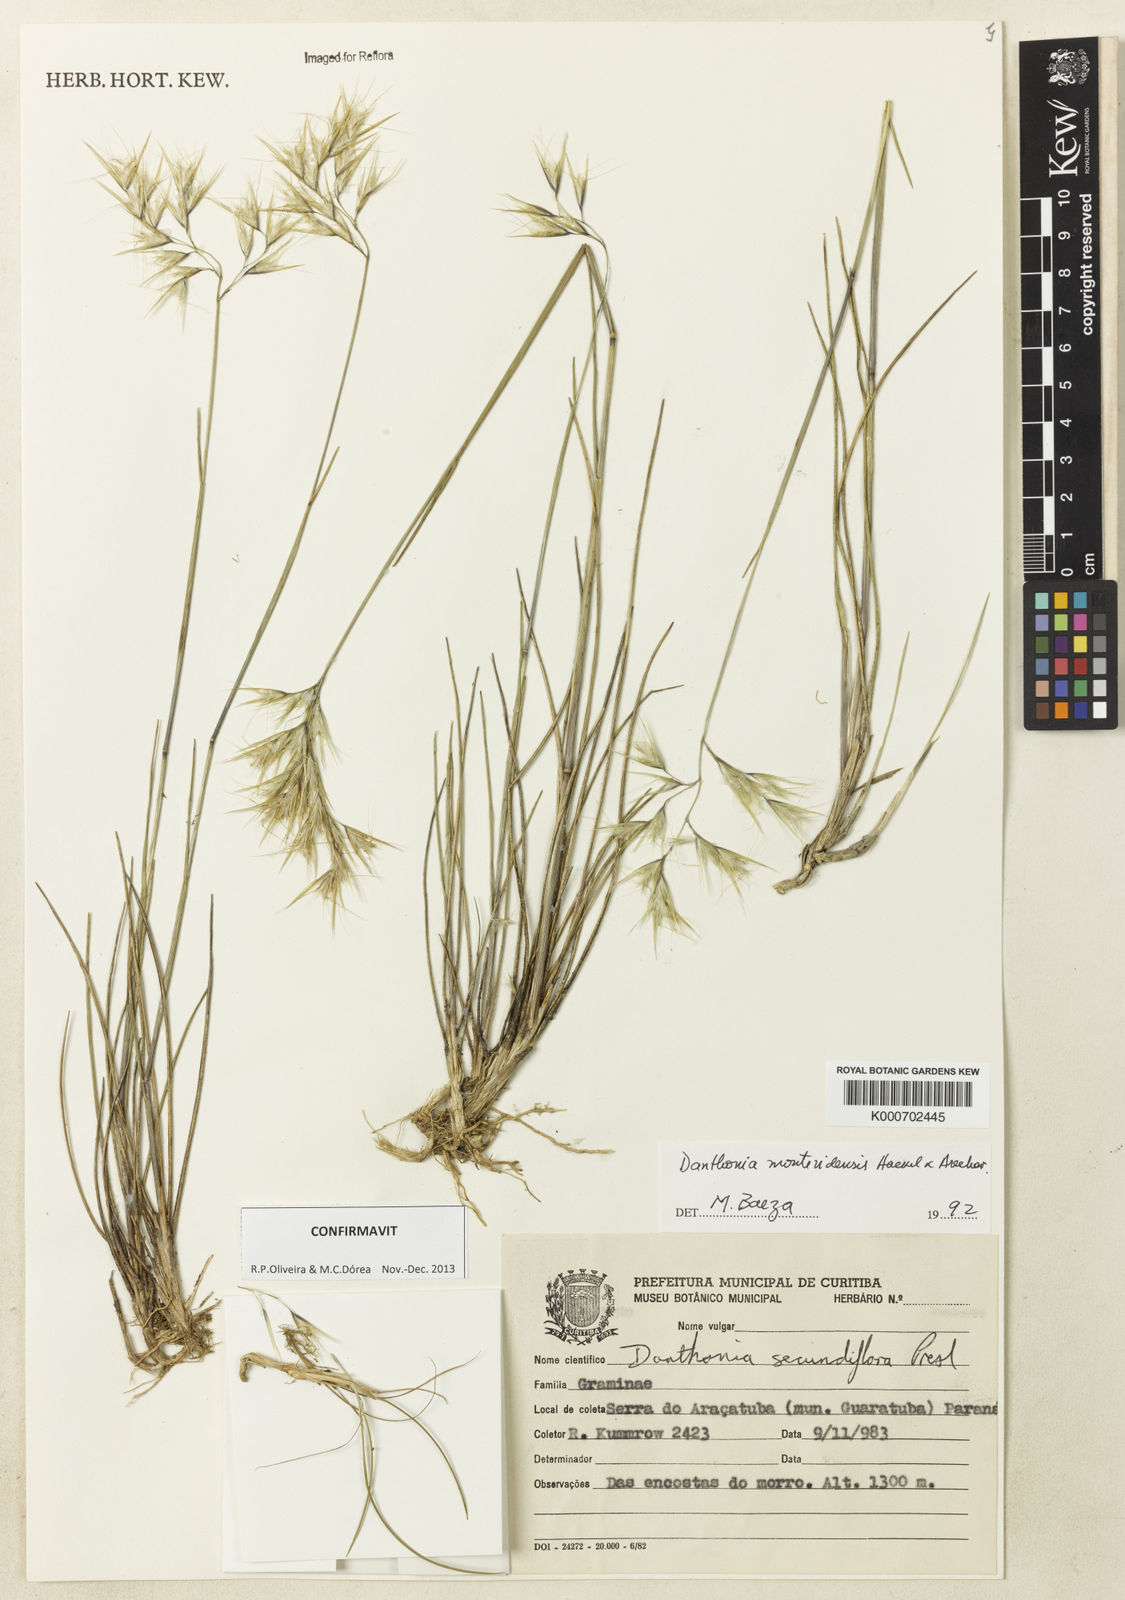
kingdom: Plantae
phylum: Tracheophyta
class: Liliopsida
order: Poales
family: Poaceae
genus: Danthonia
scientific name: Danthonia montevidensis
